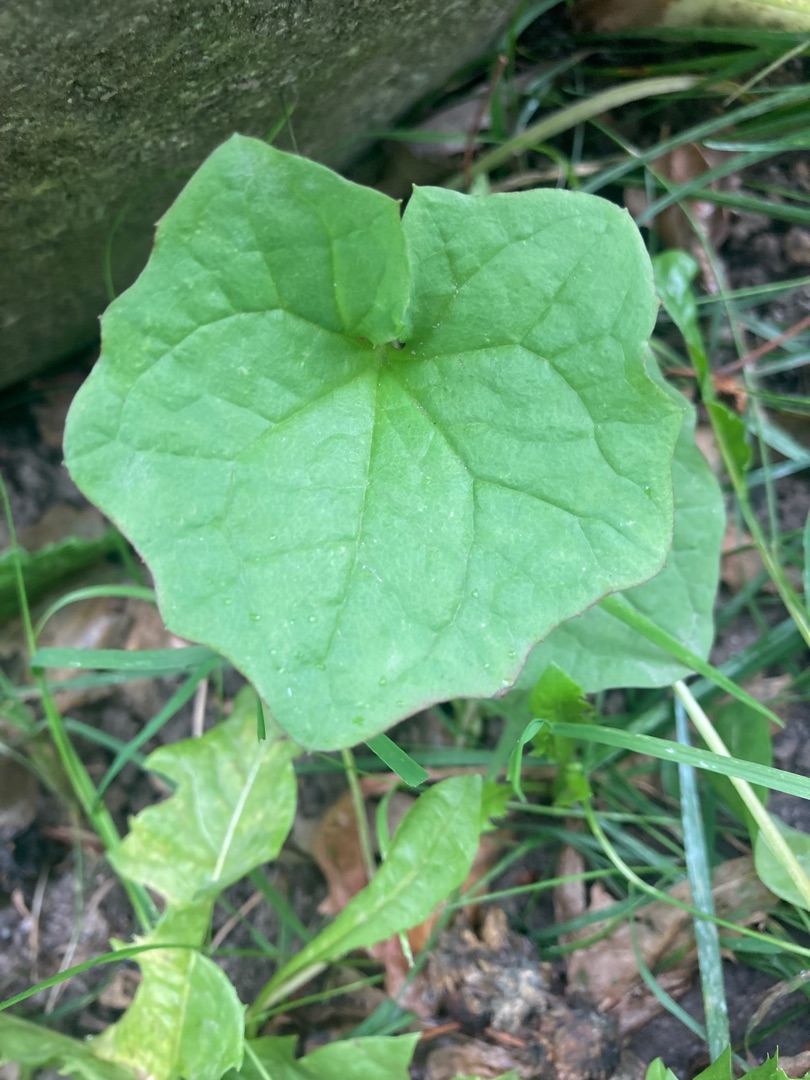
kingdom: Plantae
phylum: Tracheophyta
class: Magnoliopsida
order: Brassicales
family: Brassicaceae
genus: Alliaria
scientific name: Alliaria petiolata
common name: Løgkarse
